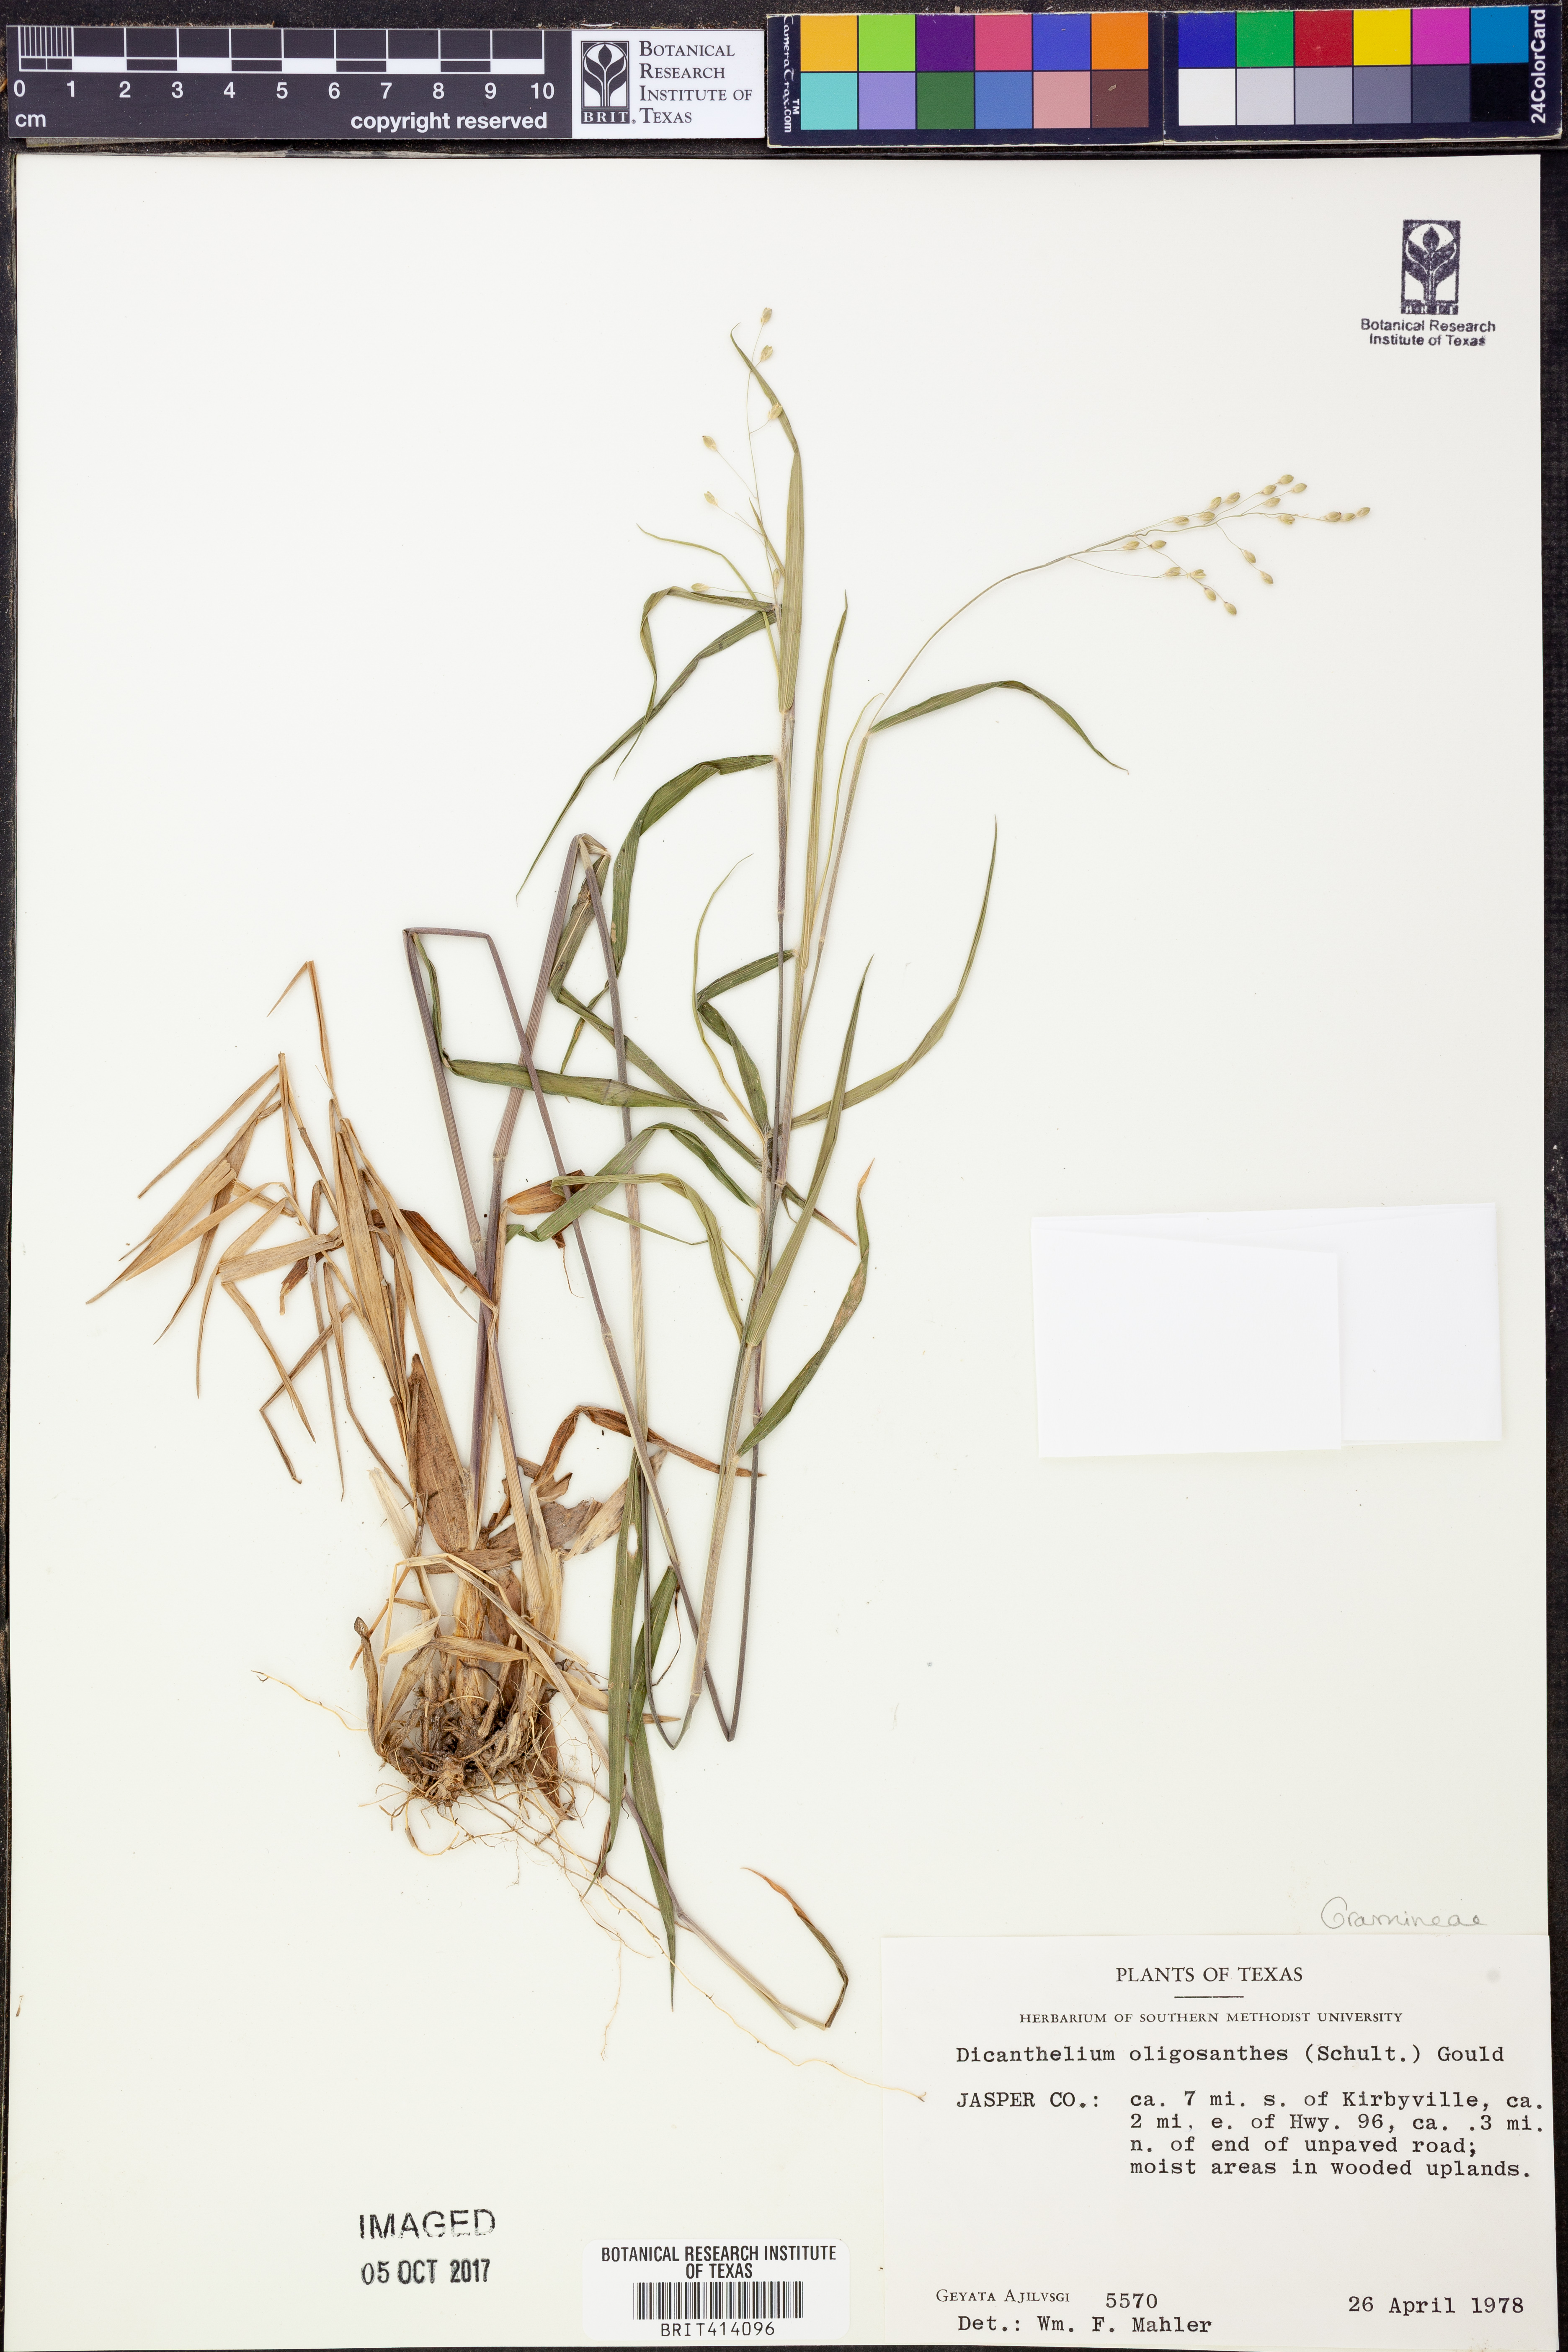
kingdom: Plantae
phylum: Tracheophyta
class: Liliopsida
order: Poales
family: Poaceae
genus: Dichanthelium
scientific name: Dichanthelium oligosanthes
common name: Few-anther obscuregrass
